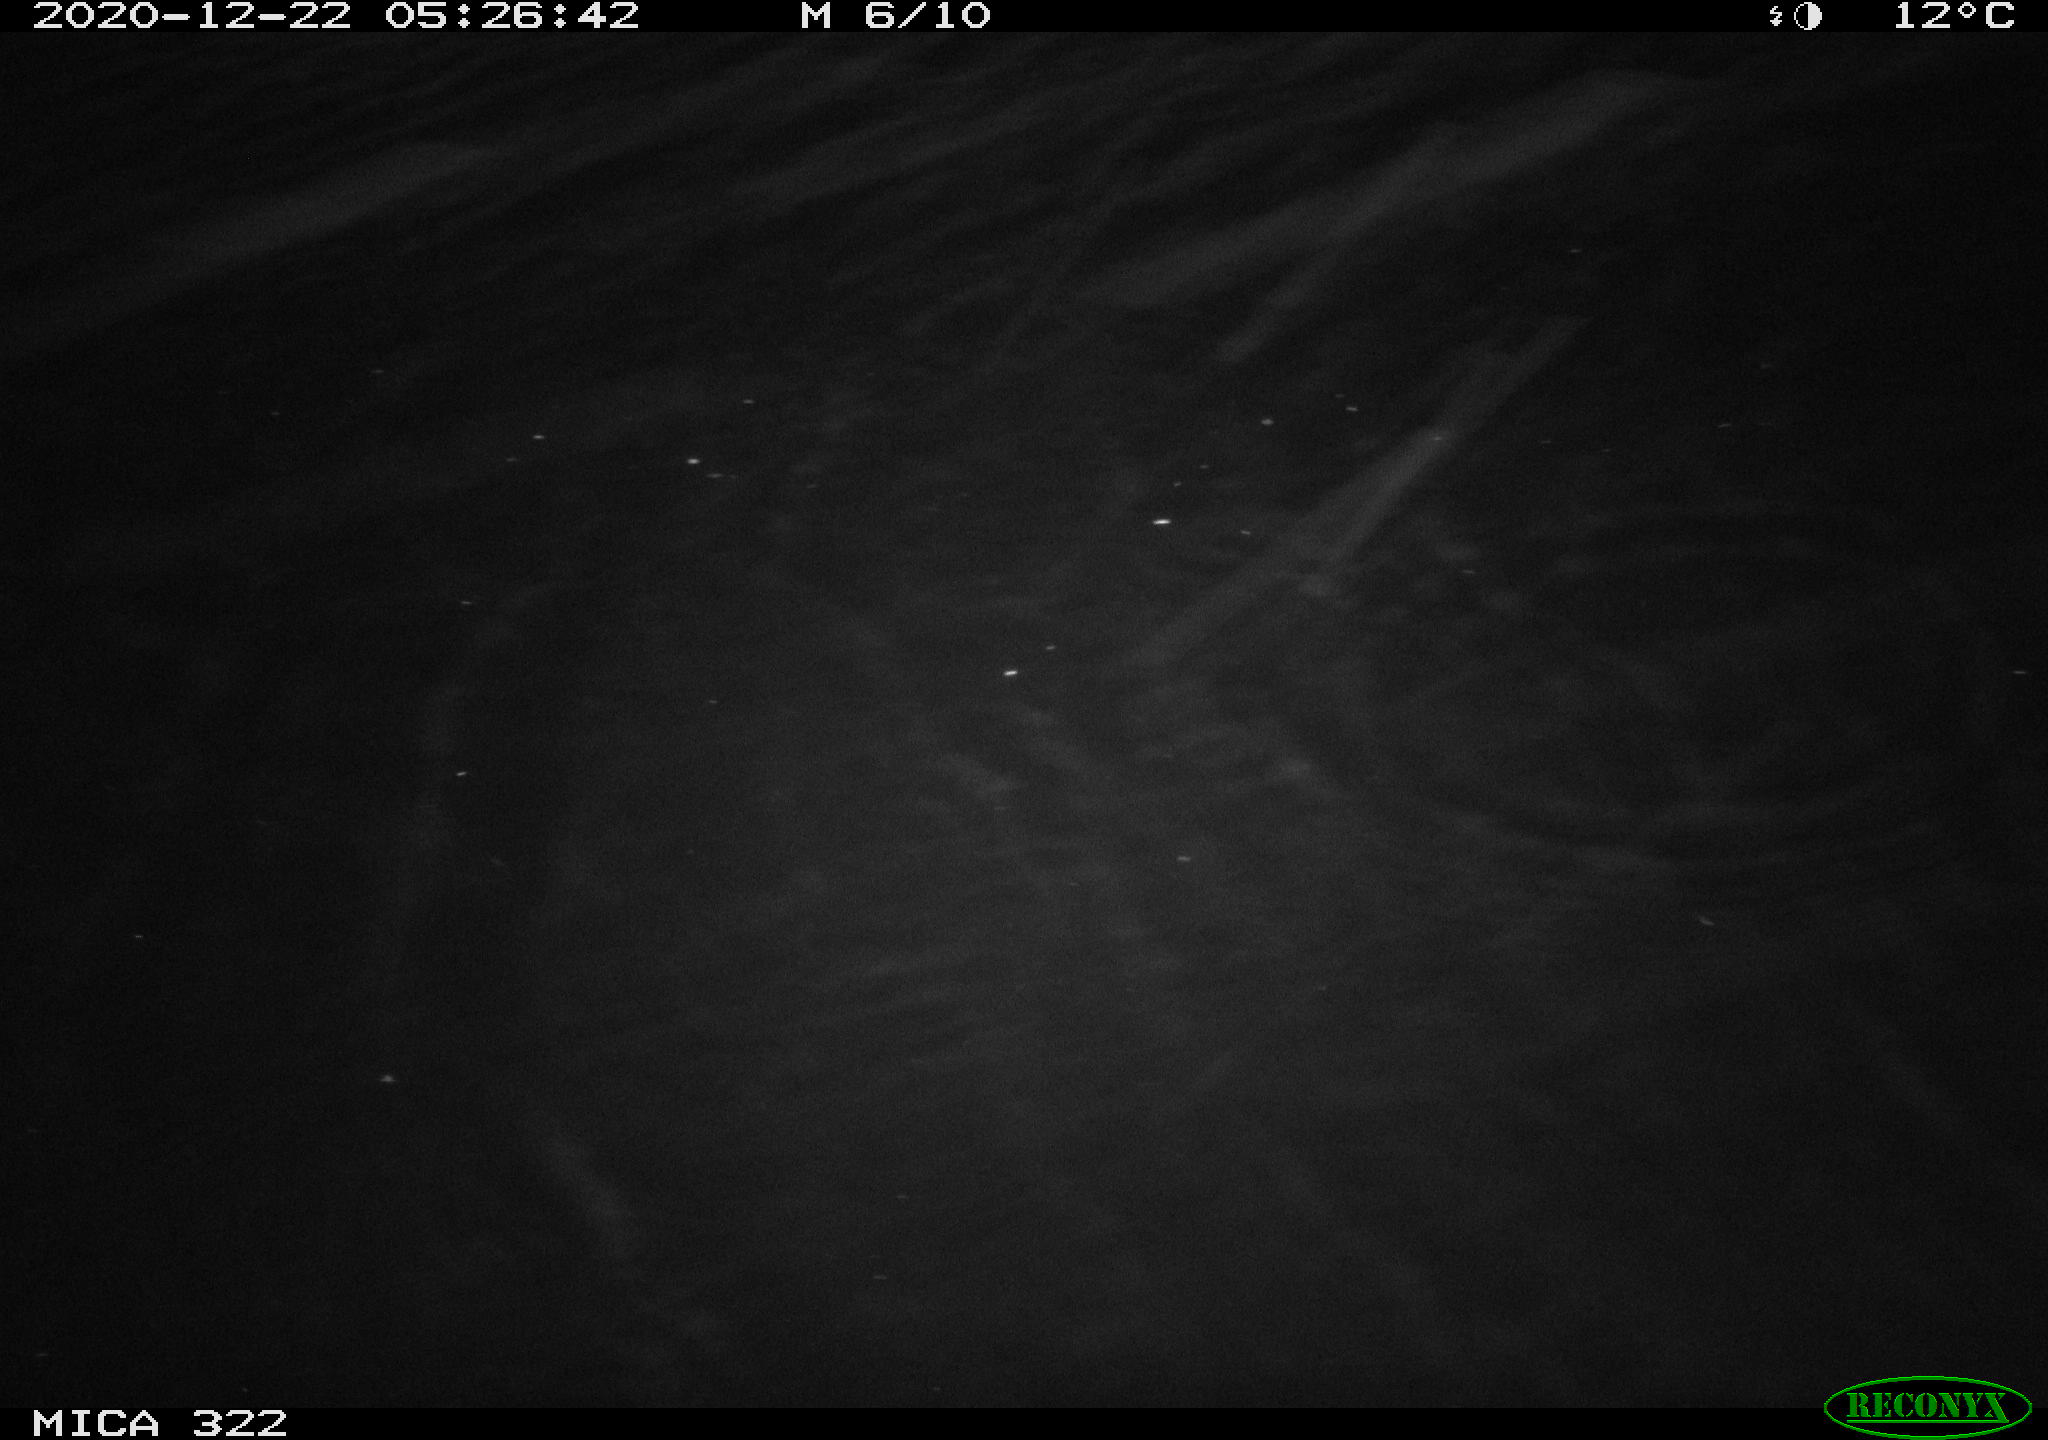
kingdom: Animalia
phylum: Chordata
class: Mammalia
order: Rodentia
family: Cricetidae
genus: Ondatra
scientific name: Ondatra zibethicus
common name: Muskrat
